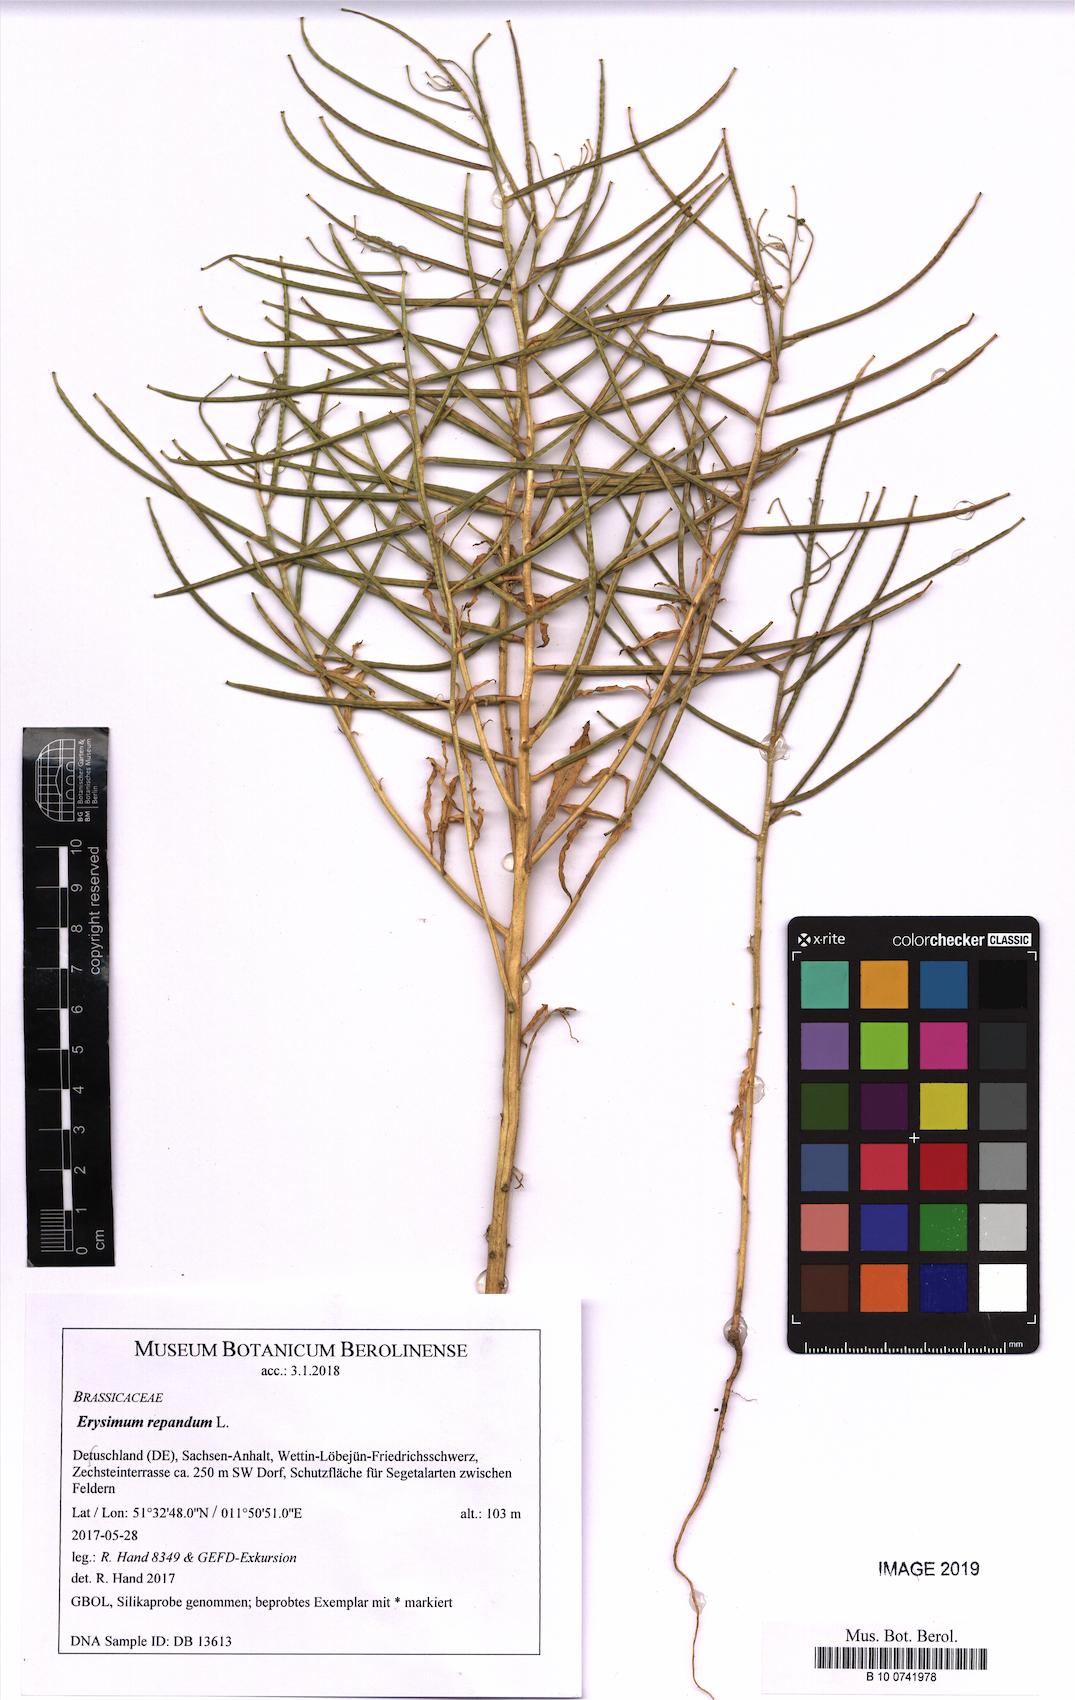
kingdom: Plantae
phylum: Tracheophyta
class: Magnoliopsida
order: Brassicales
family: Brassicaceae
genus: Erysimum
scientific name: Erysimum repandum
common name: Spreading wallflower
